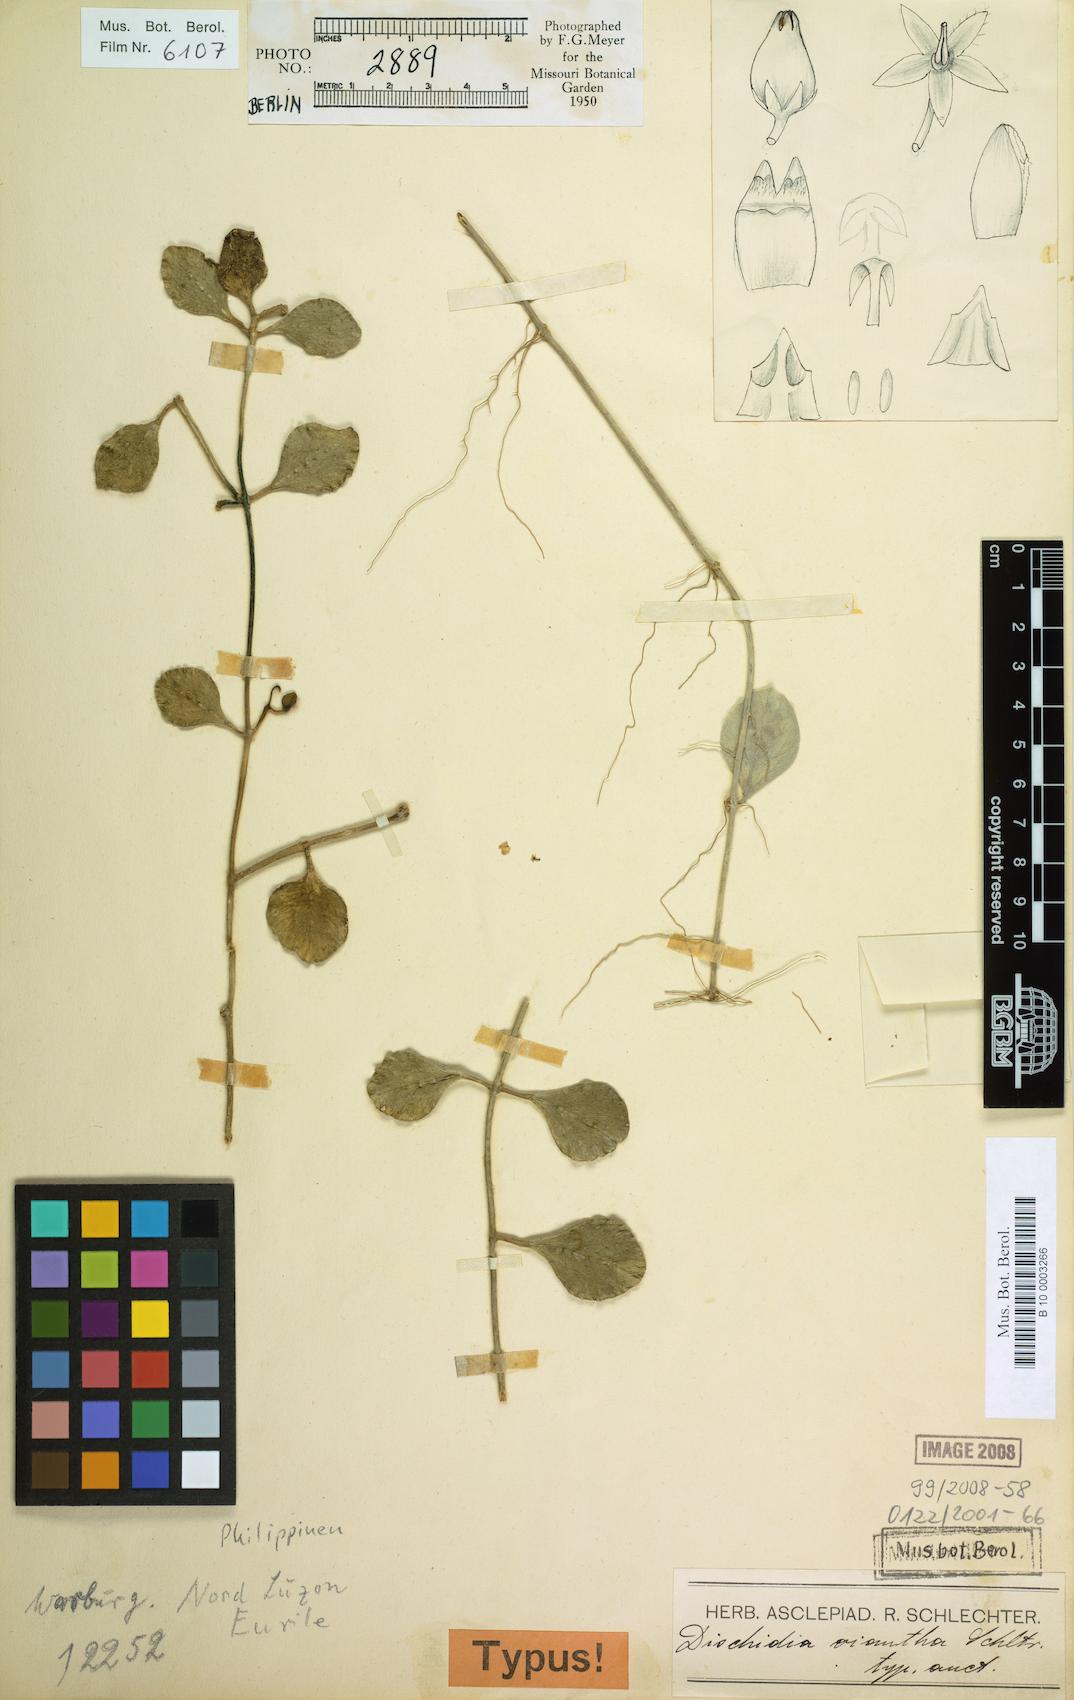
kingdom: Plantae
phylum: Tracheophyta
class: Magnoliopsida
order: Gentianales
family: Apocynaceae
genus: Dischidia
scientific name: Dischidia oiantha
